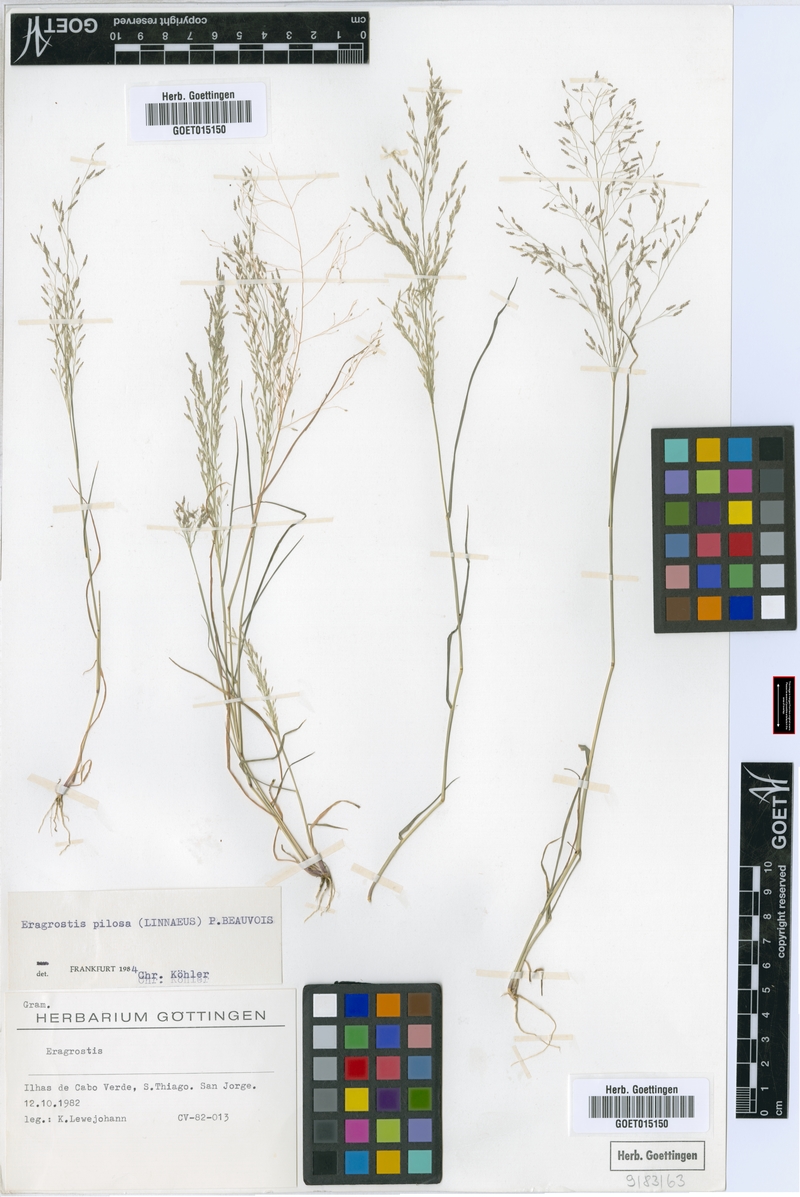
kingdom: Plantae
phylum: Tracheophyta
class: Liliopsida
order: Poales
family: Poaceae
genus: Eragrostis
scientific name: Eragrostis pilosa
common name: Indian lovegrass
